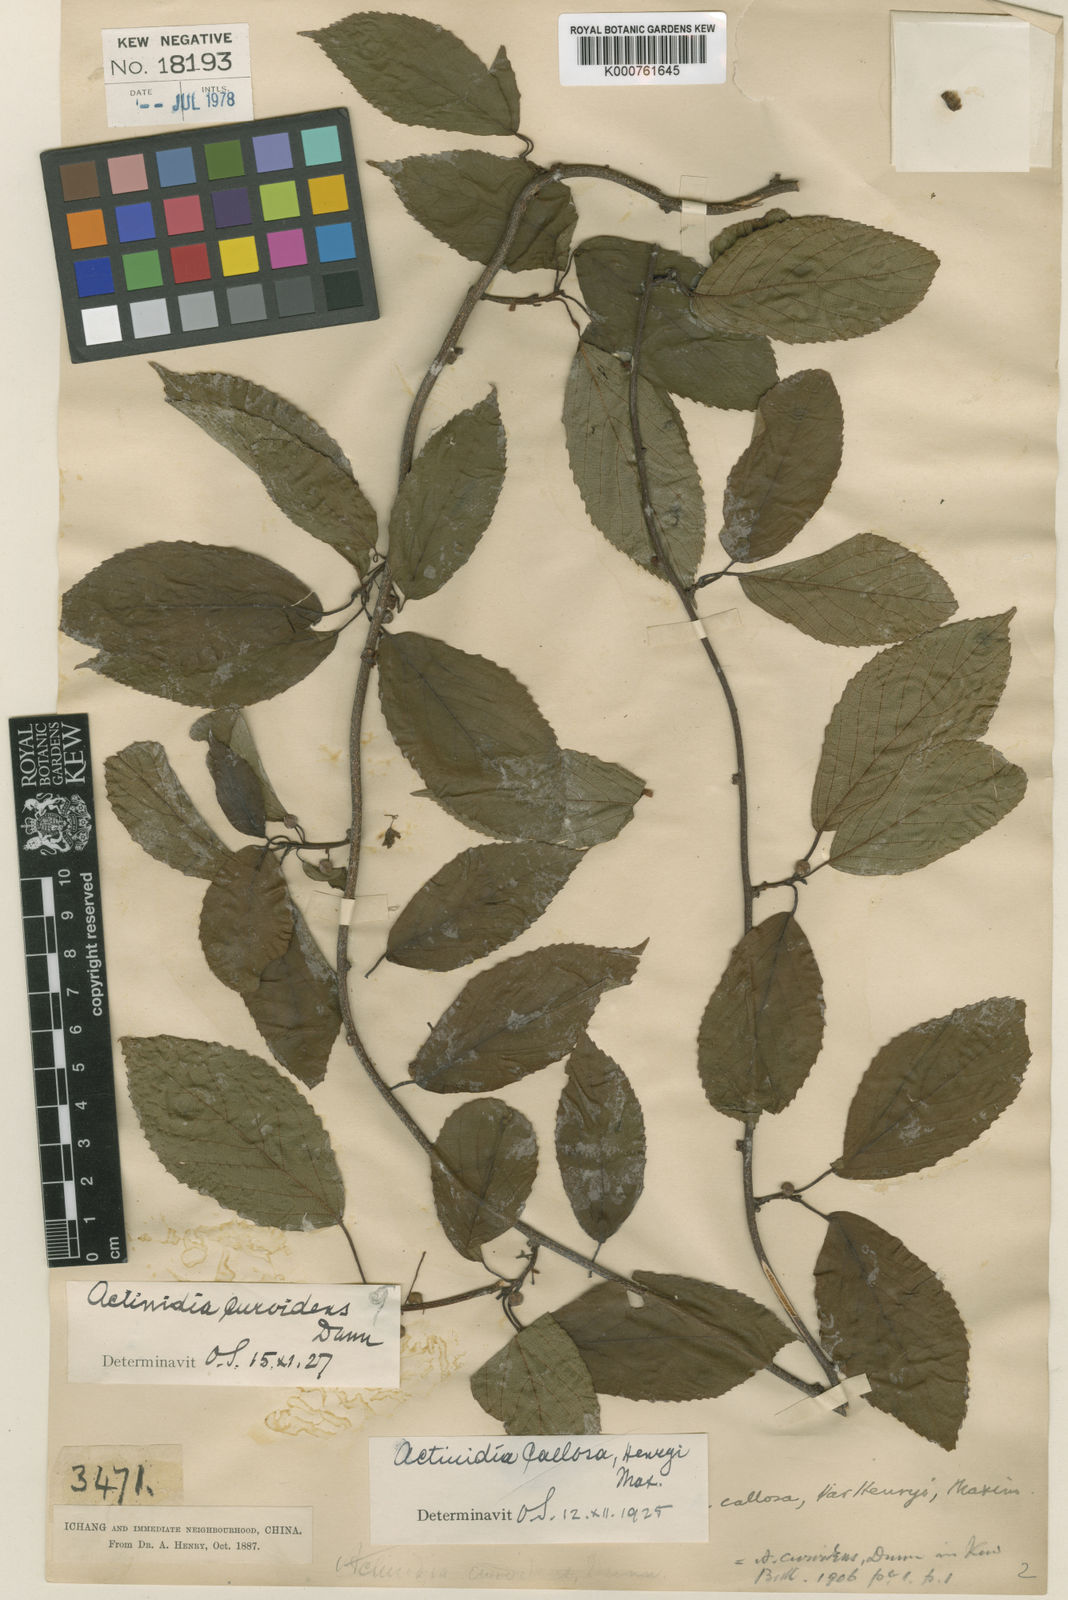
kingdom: Plantae
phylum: Tracheophyta
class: Magnoliopsida
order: Ericales
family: Actinidiaceae
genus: Actinidia
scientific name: Actinidia callosa
